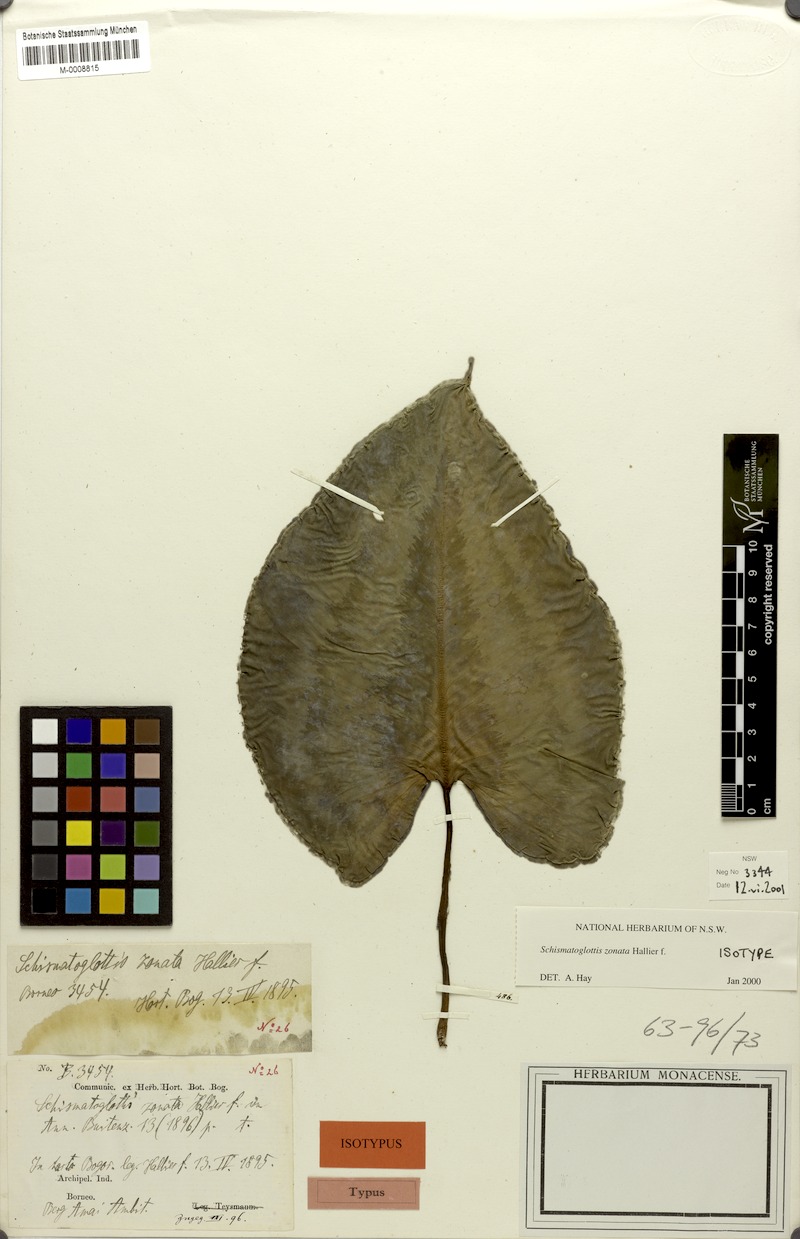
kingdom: Plantae
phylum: Tracheophyta
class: Liliopsida
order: Alismatales
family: Araceae
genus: Schismatoglottis
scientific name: Schismatoglottis zonata
